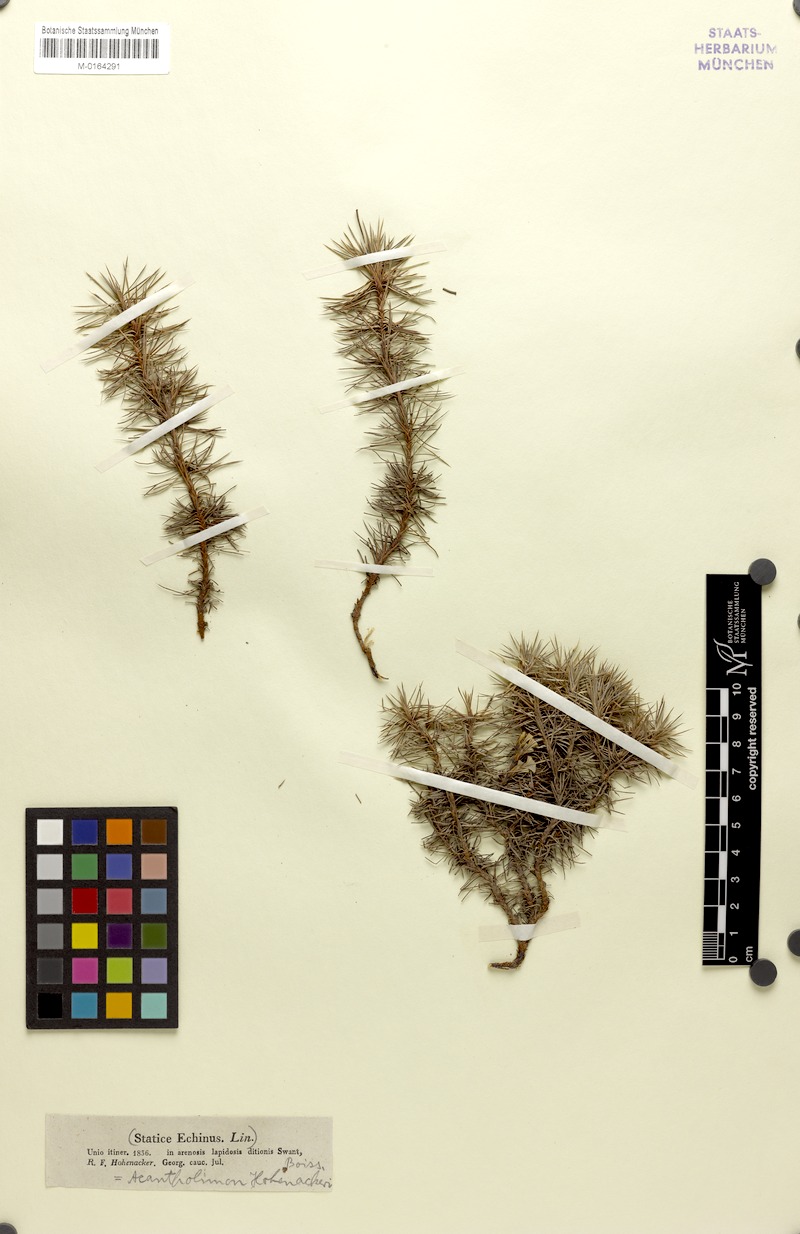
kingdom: Plantae
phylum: Tracheophyta
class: Magnoliopsida
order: Caryophyllales
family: Plumbaginaceae
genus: Acantholimon
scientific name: Acantholimon hohenackeri
